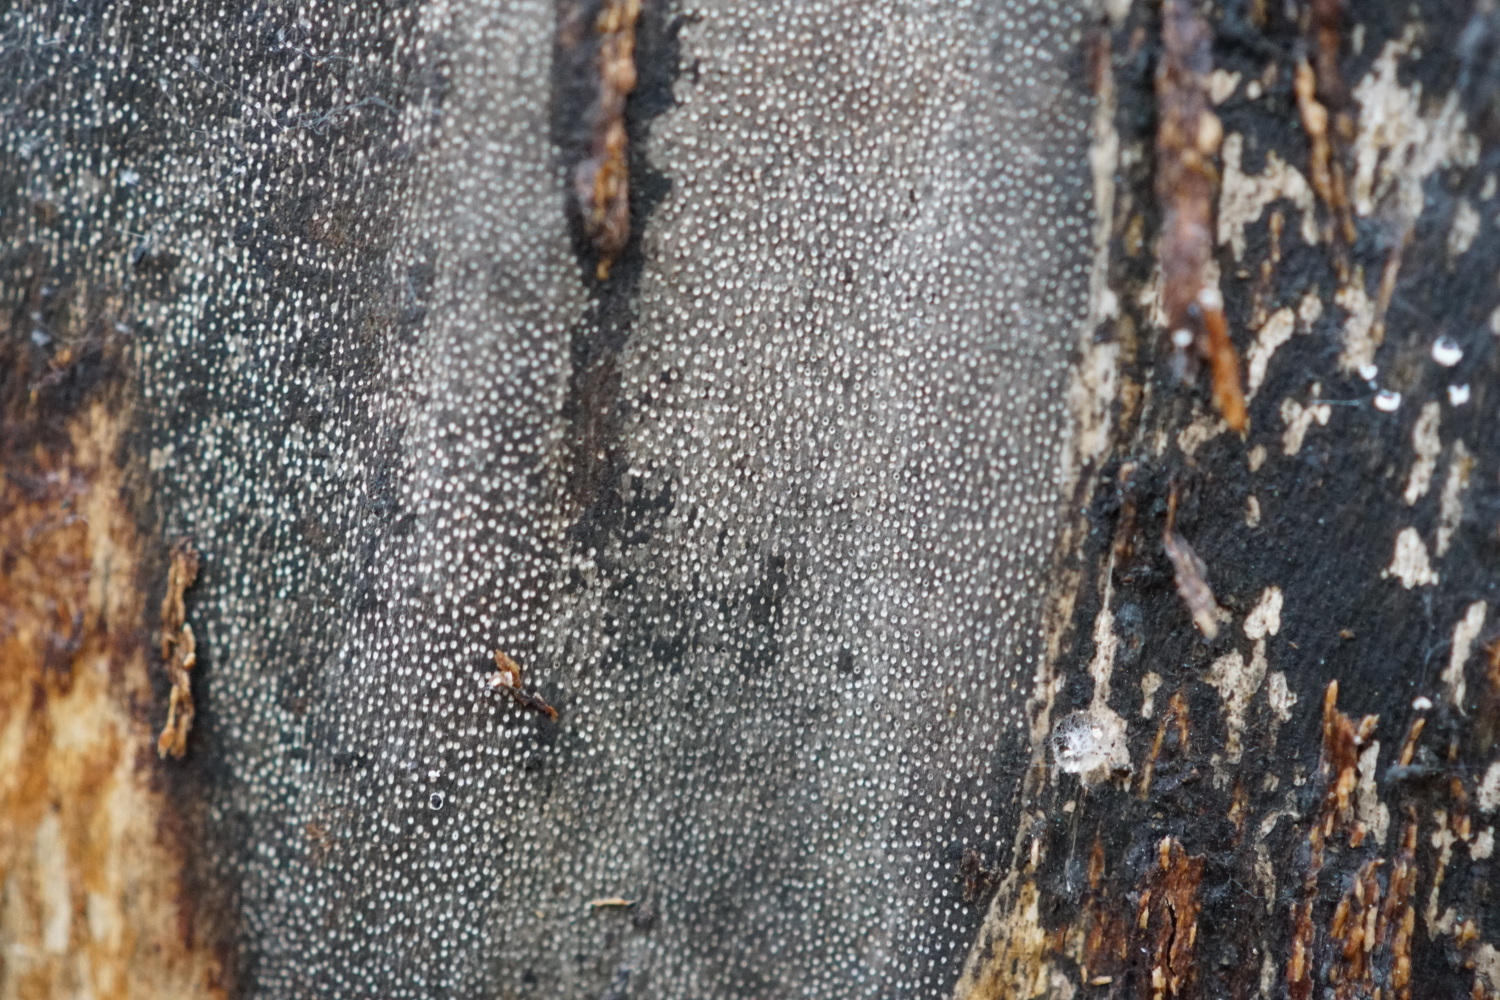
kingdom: Fungi
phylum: Ascomycota
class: Sordariomycetes
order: Xylariales
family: Diatrypaceae
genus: Eutypa
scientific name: Eutypa maura
